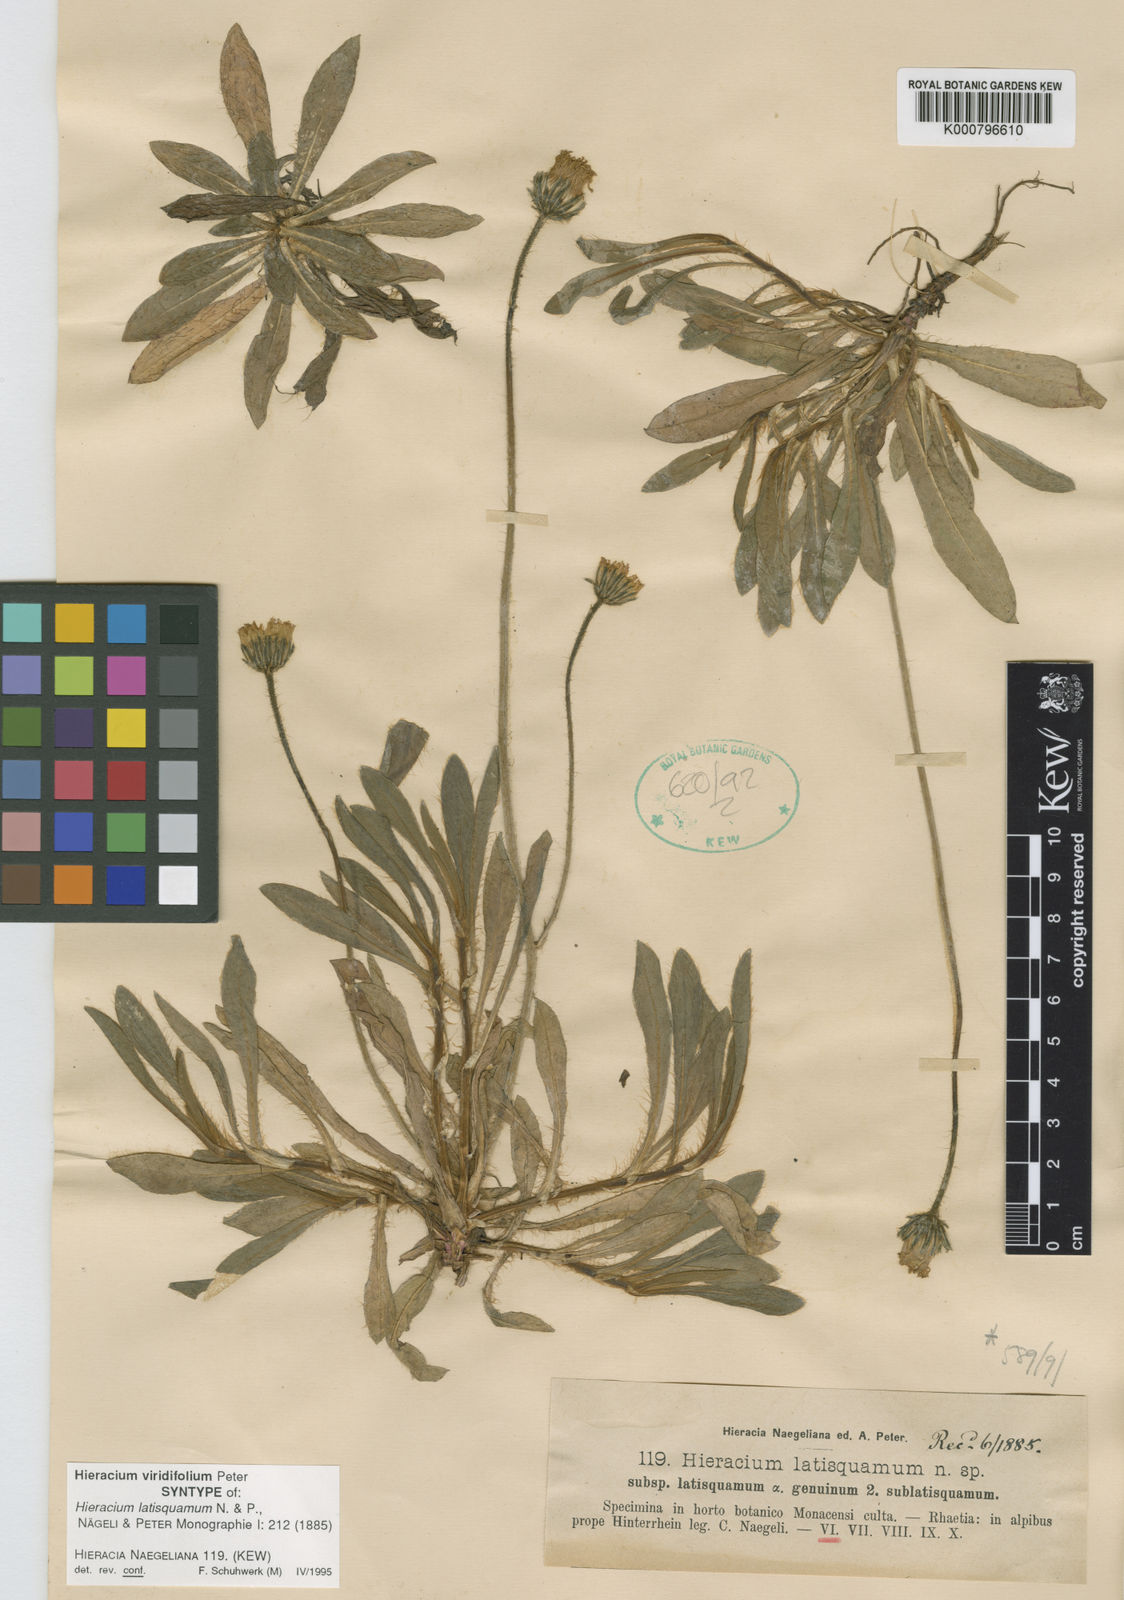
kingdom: Plantae
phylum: Tracheophyta
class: Magnoliopsida
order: Asterales
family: Asteraceae
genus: Pilosella
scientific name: Pilosella viridifolia
